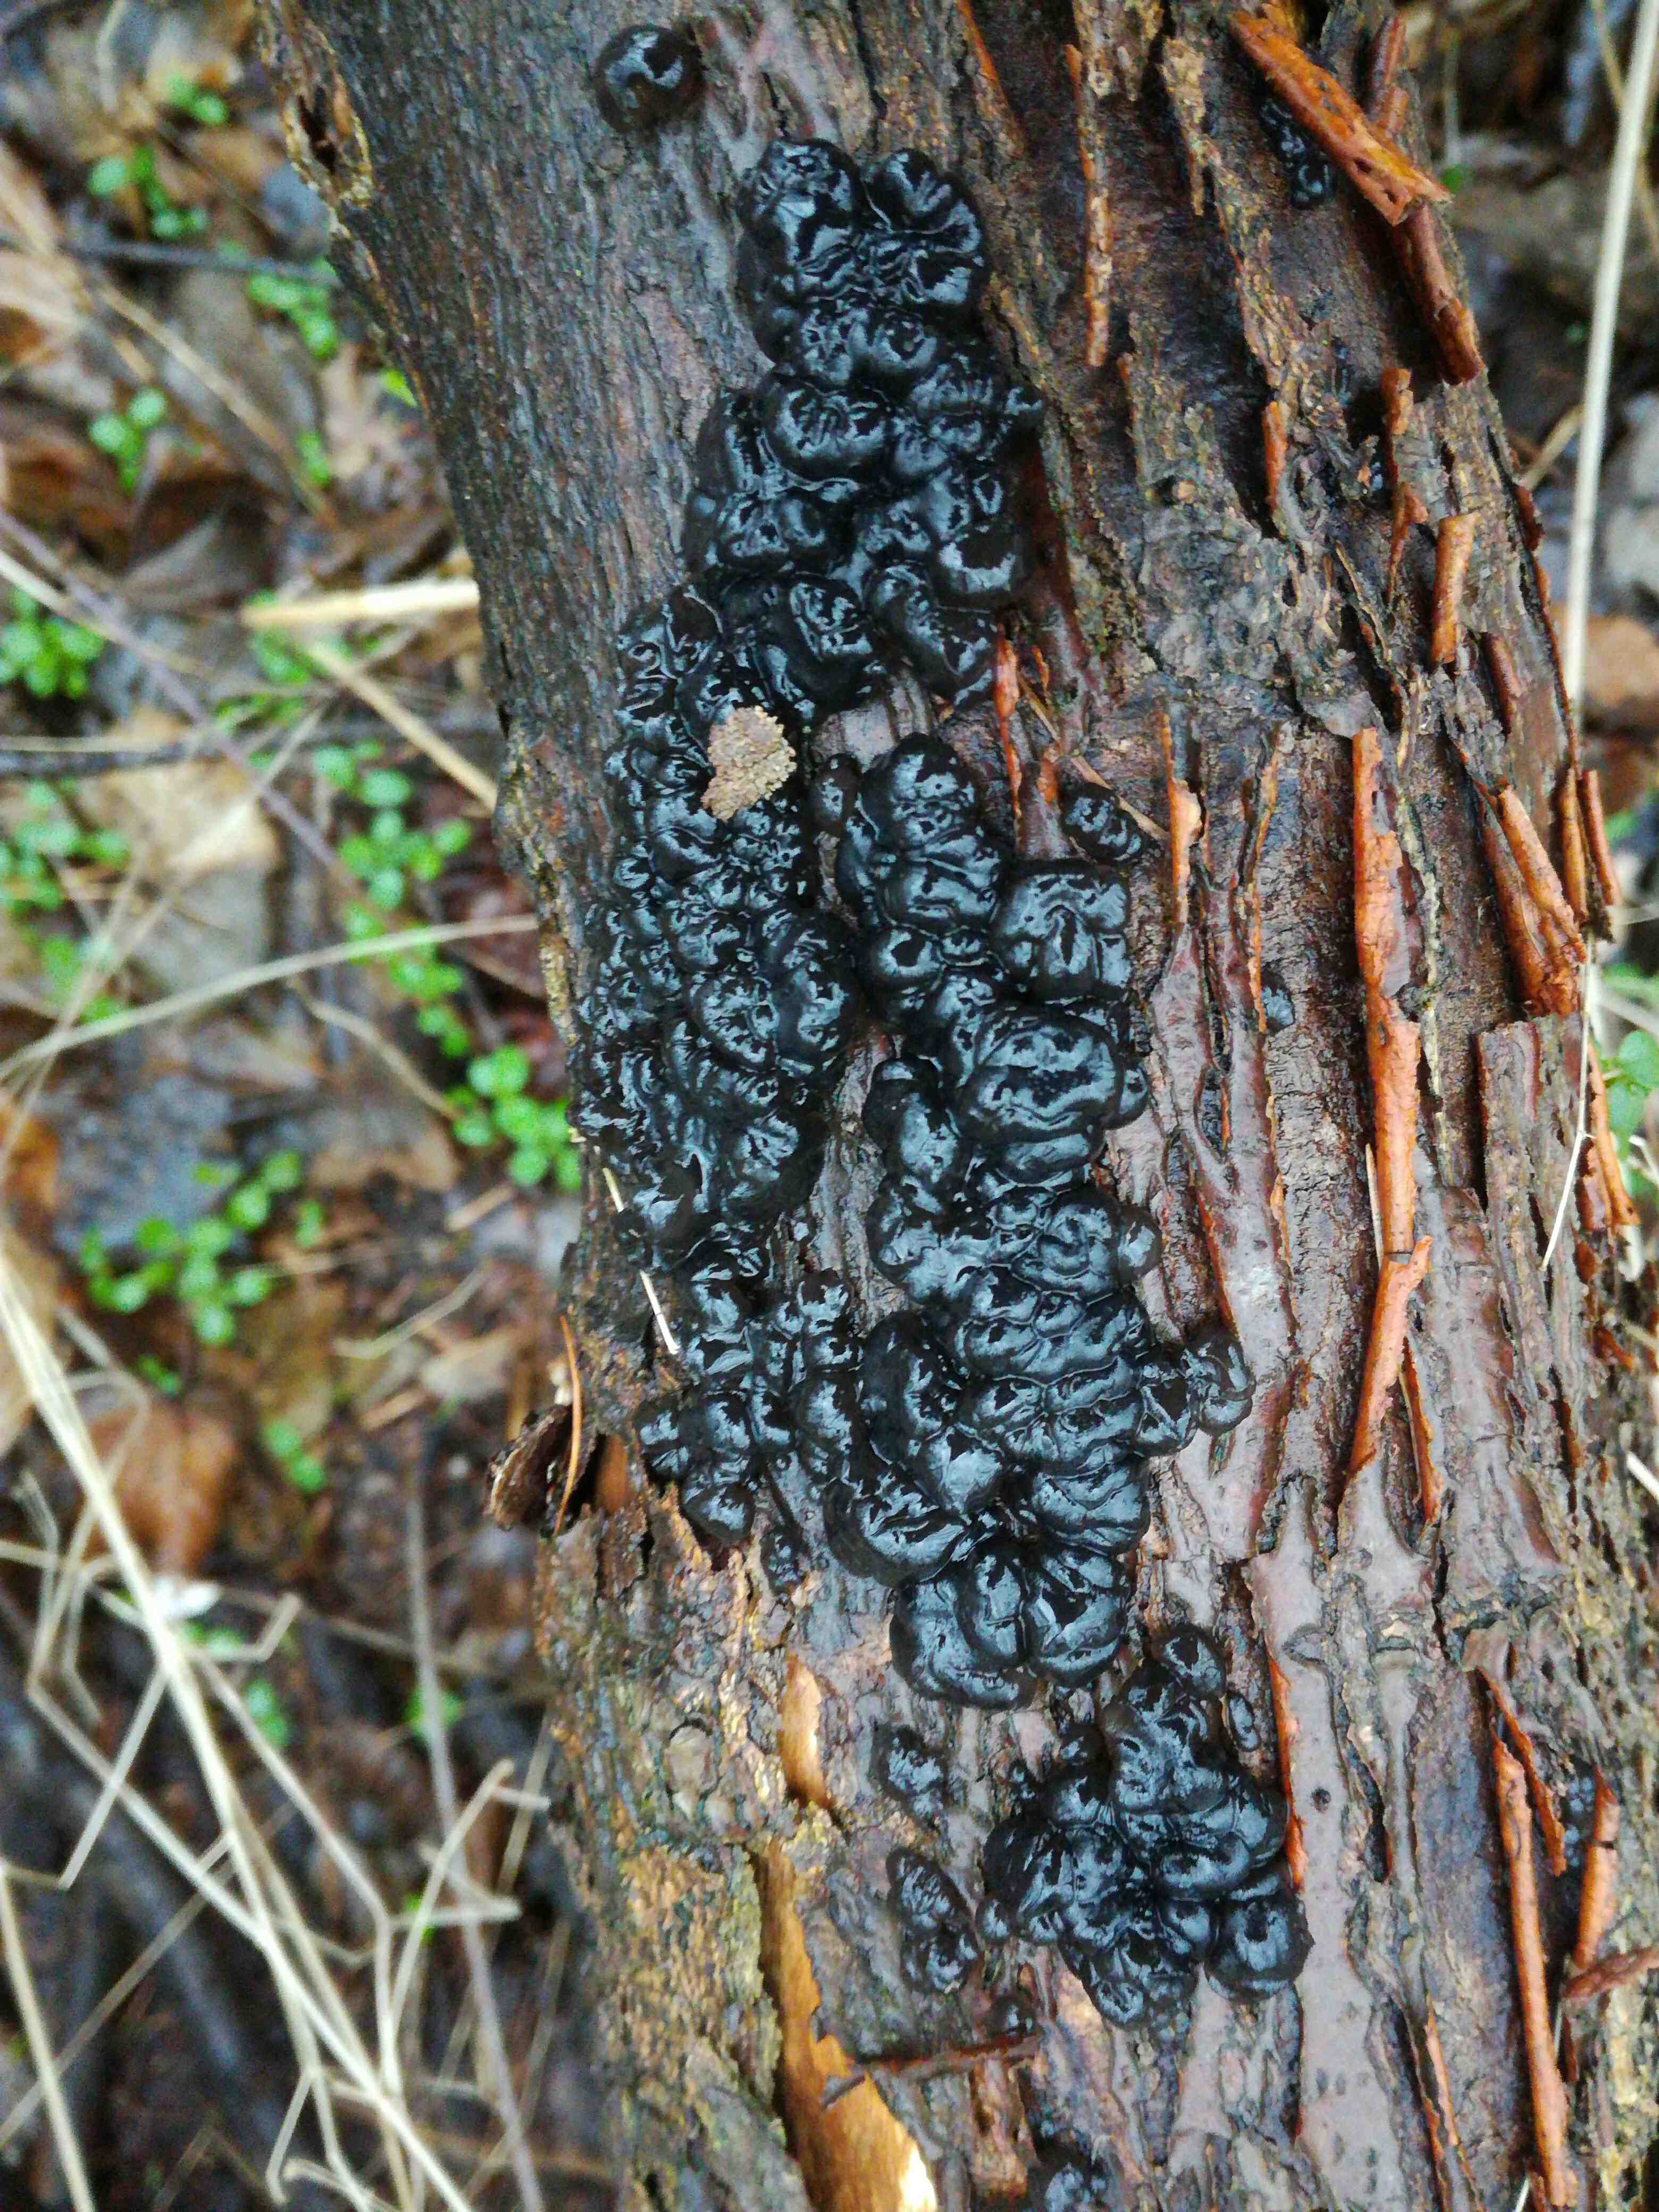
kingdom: Fungi
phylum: Basidiomycota
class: Agaricomycetes
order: Auriculariales
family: Auriculariaceae
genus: Exidia
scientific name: Exidia nigricans
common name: almindelig bævretop
